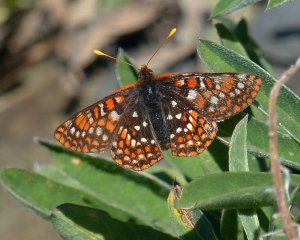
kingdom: Animalia
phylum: Arthropoda
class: Insecta
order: Lepidoptera
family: Nymphalidae
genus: Occidryas
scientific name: Occidryas anicia
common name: Anicia Checkerspot
